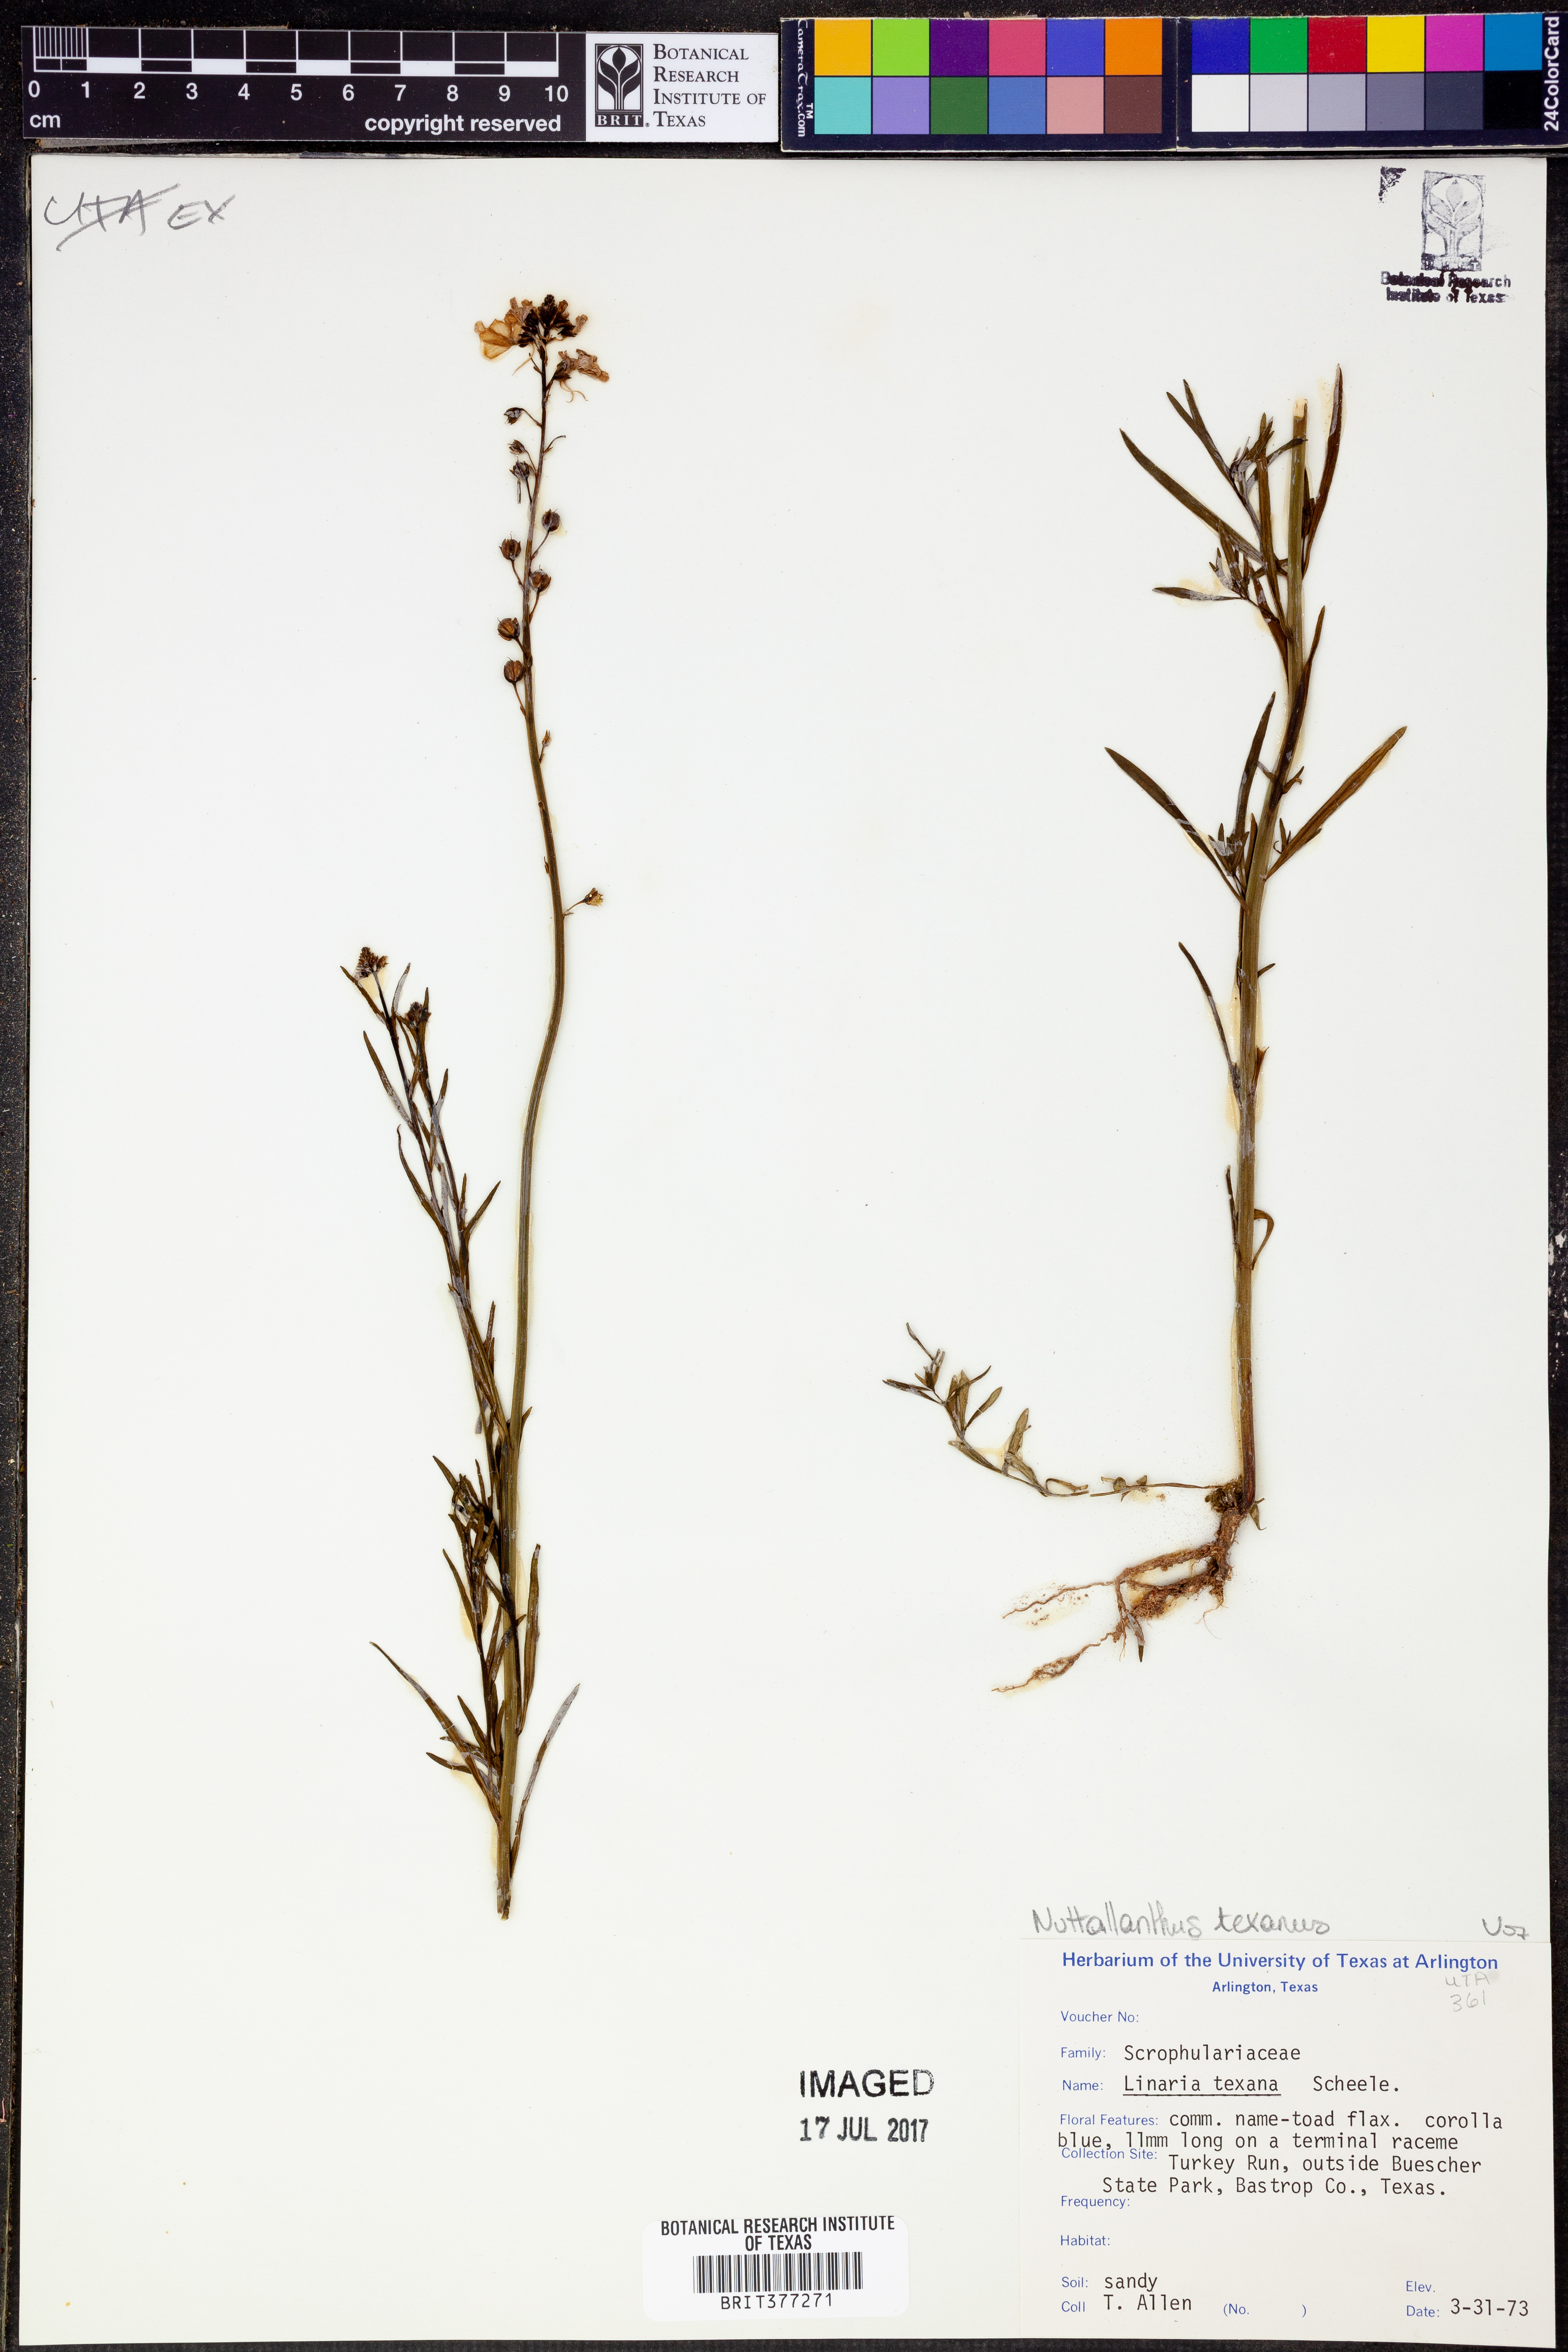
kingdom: Plantae
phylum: Tracheophyta
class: Magnoliopsida
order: Lamiales
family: Plantaginaceae
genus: Nuttallanthus
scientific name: Nuttallanthus texanus
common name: Texas toadflax
